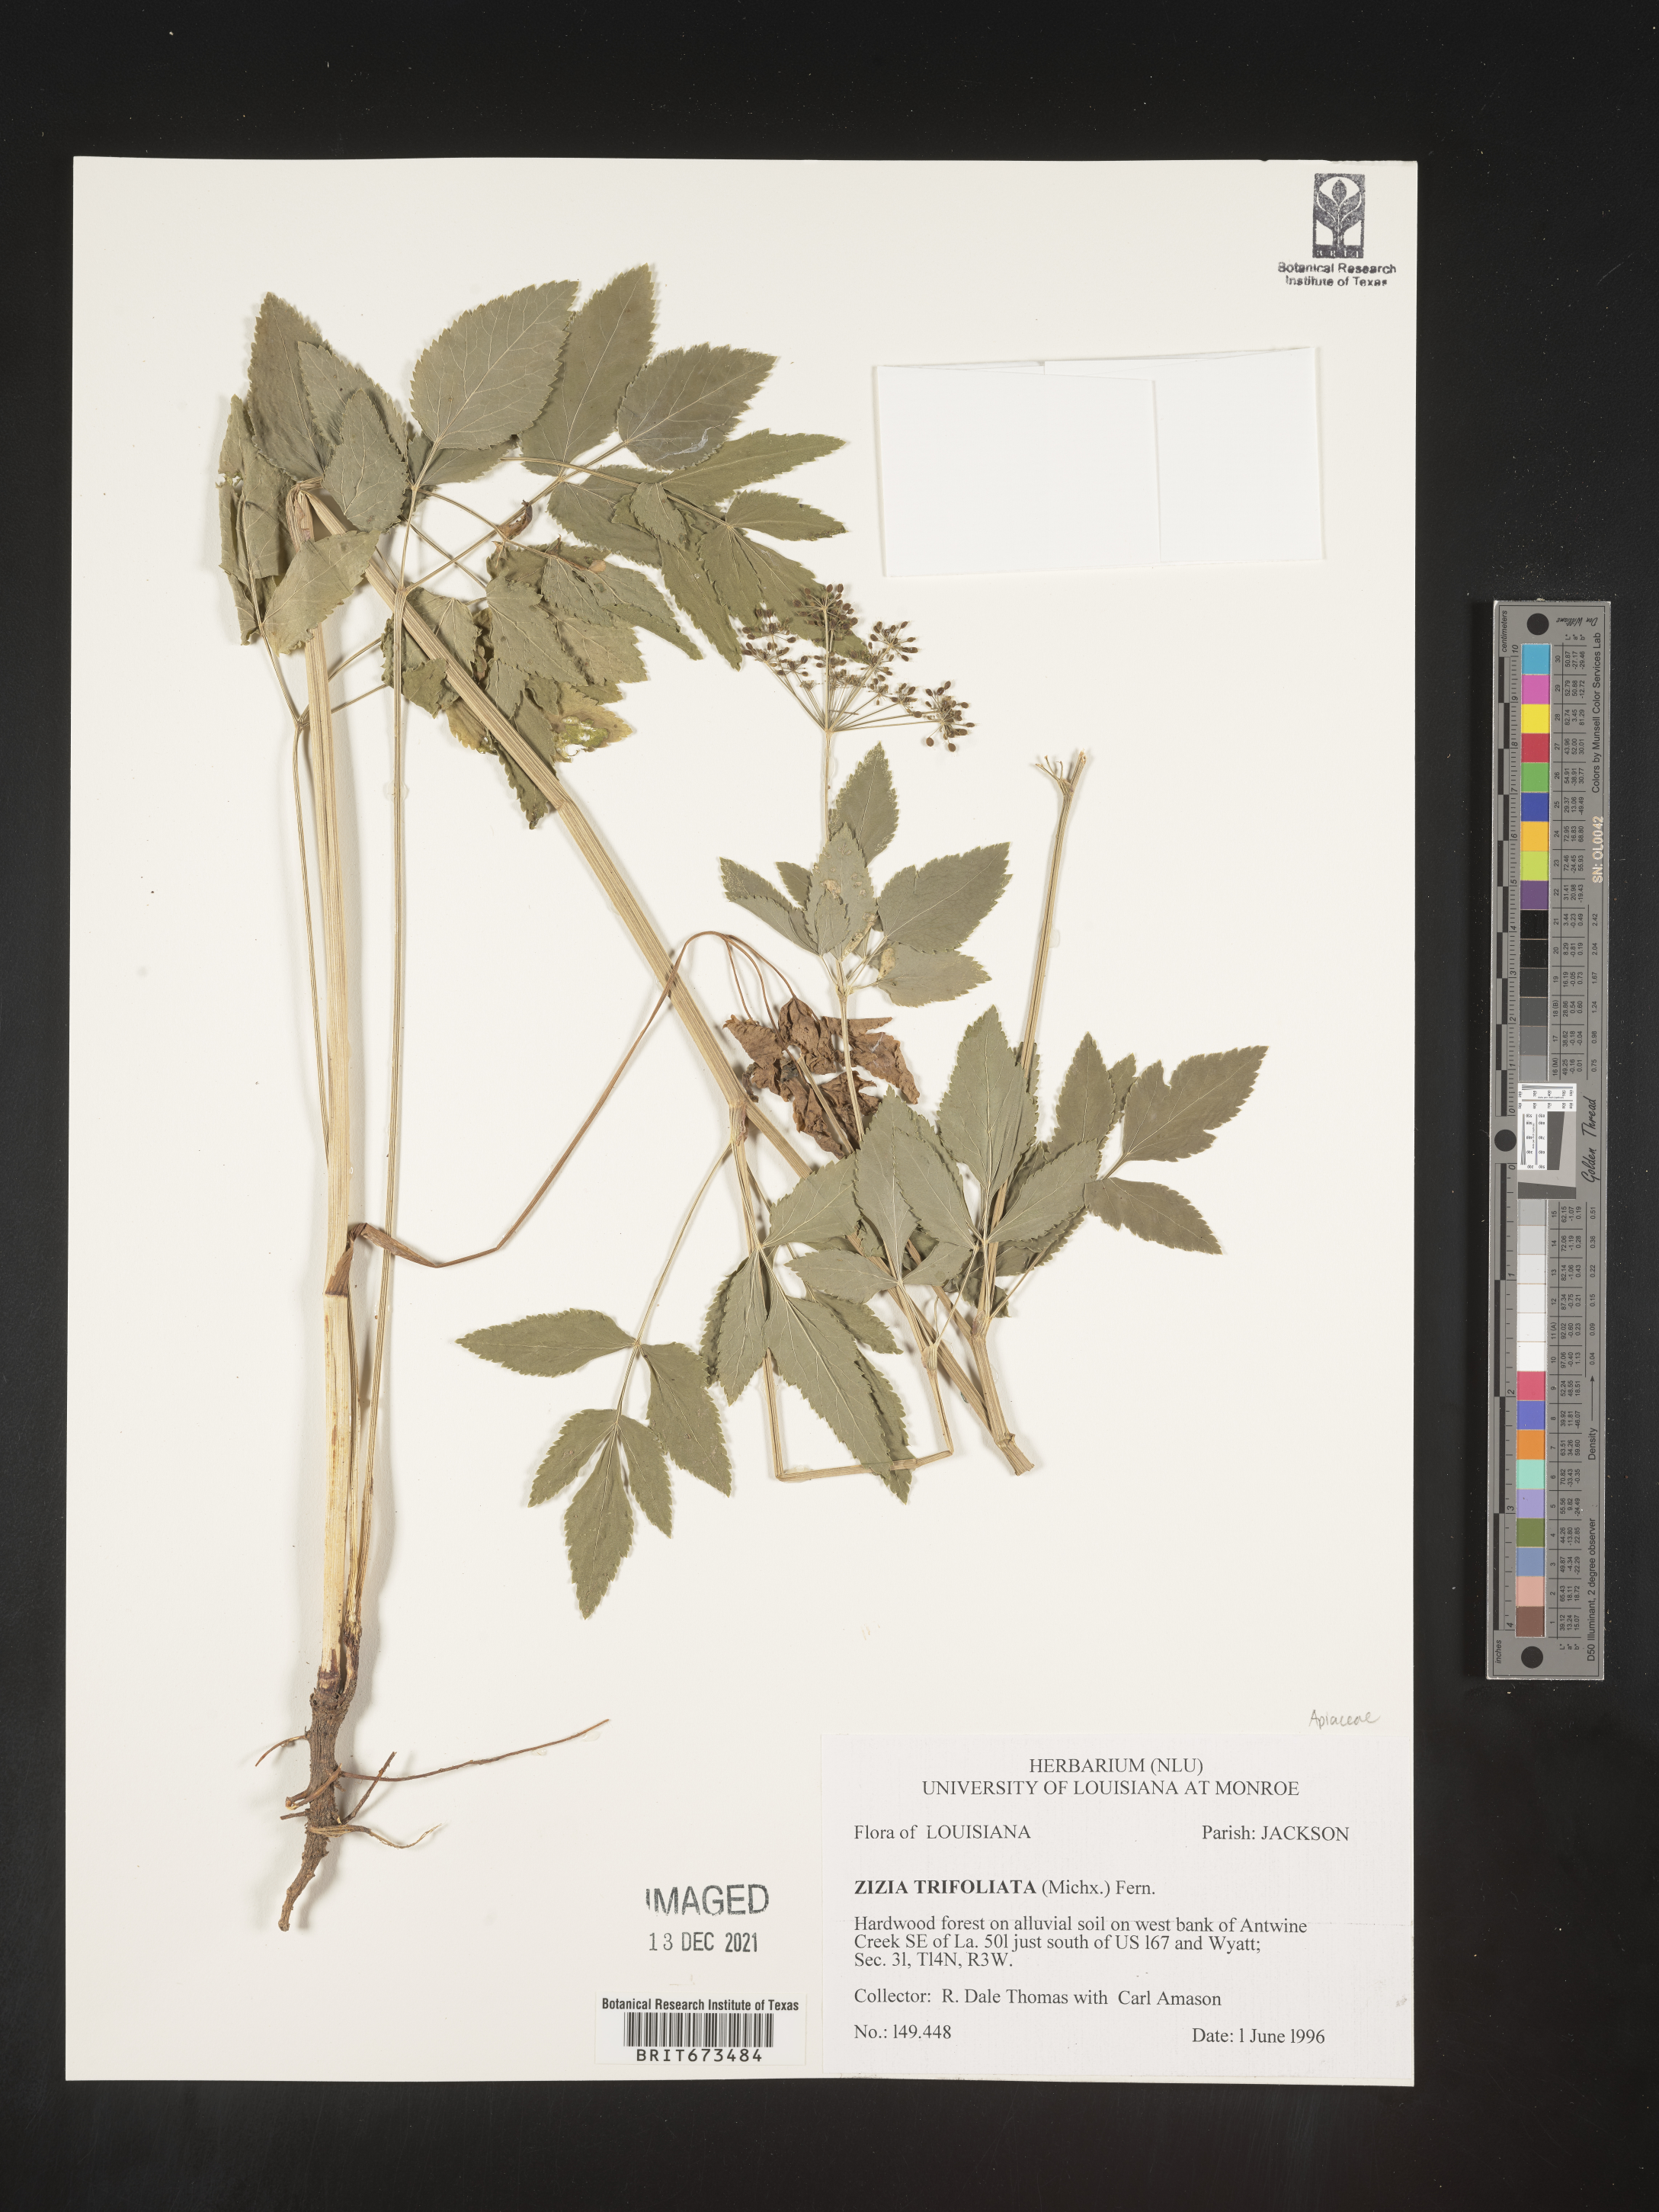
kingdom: Plantae
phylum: Tracheophyta
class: Magnoliopsida
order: Apiales
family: Apiaceae
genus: Zizia
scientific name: Zizia trifoliata
